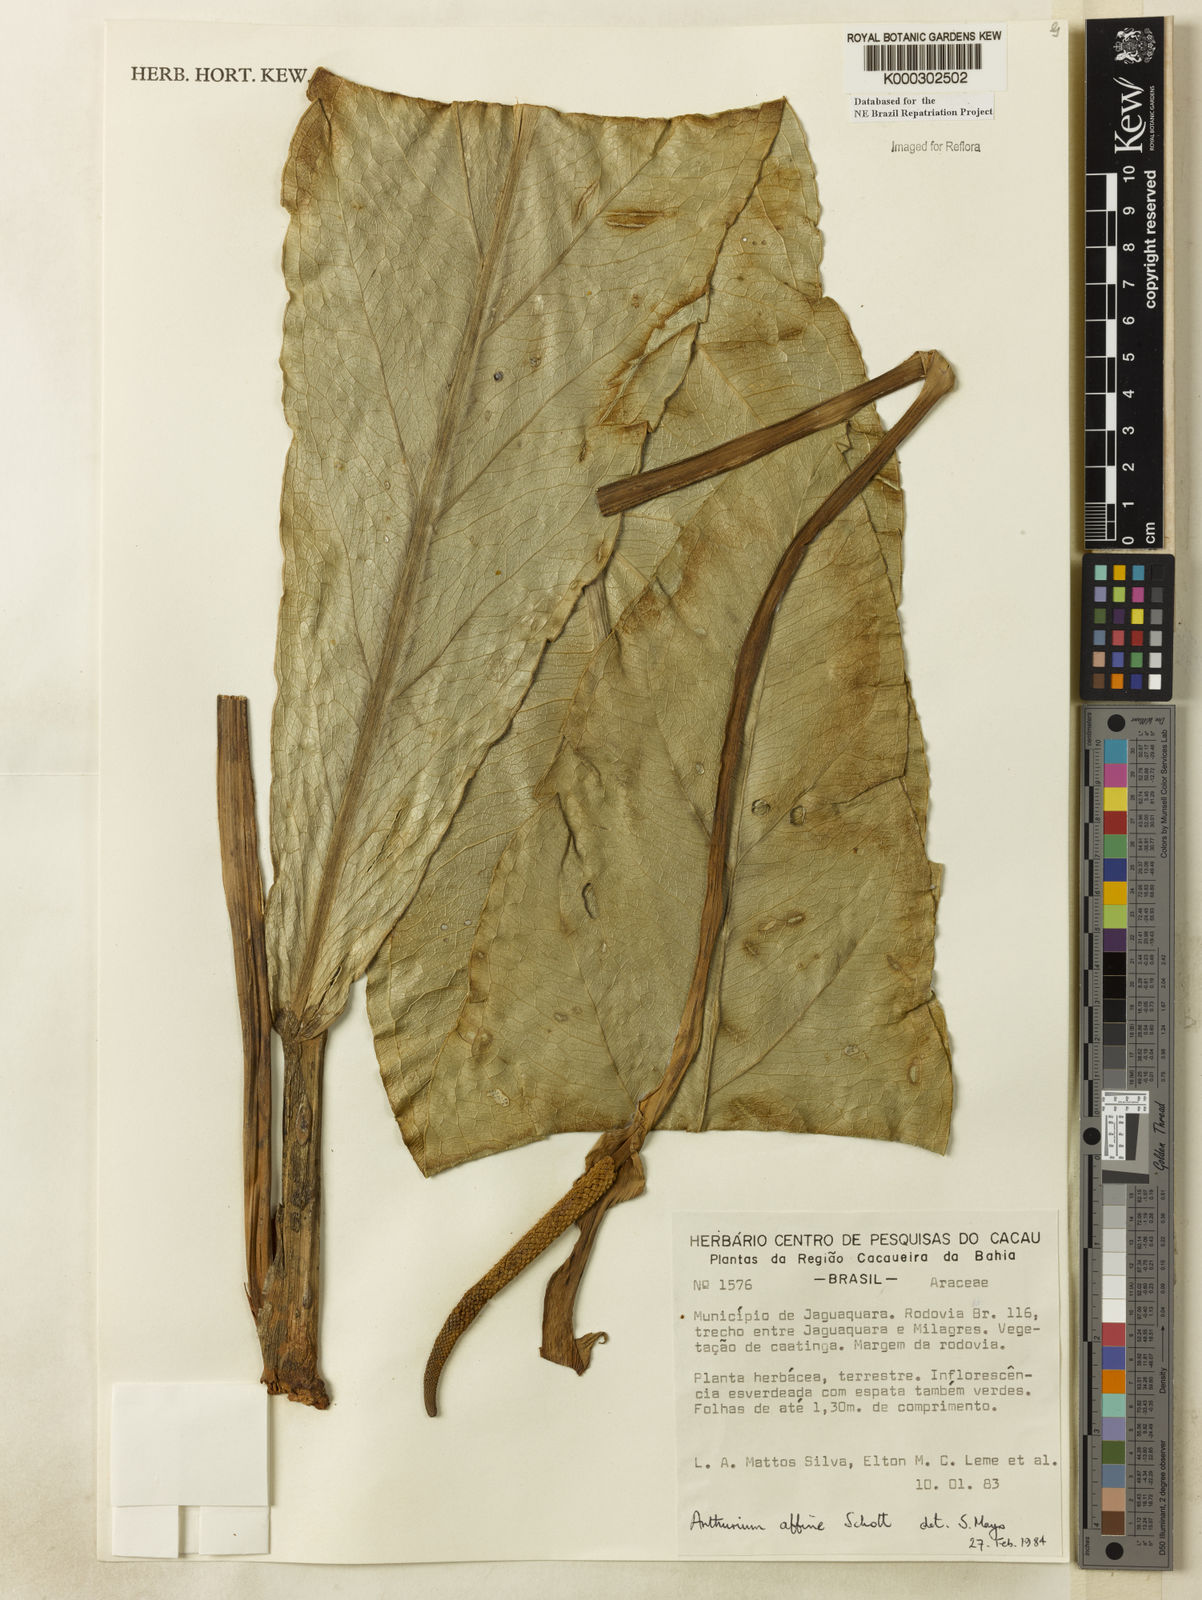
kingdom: Plantae
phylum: Tracheophyta
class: Liliopsida
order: Alismatales
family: Araceae
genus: Anthurium
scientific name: Anthurium affine
